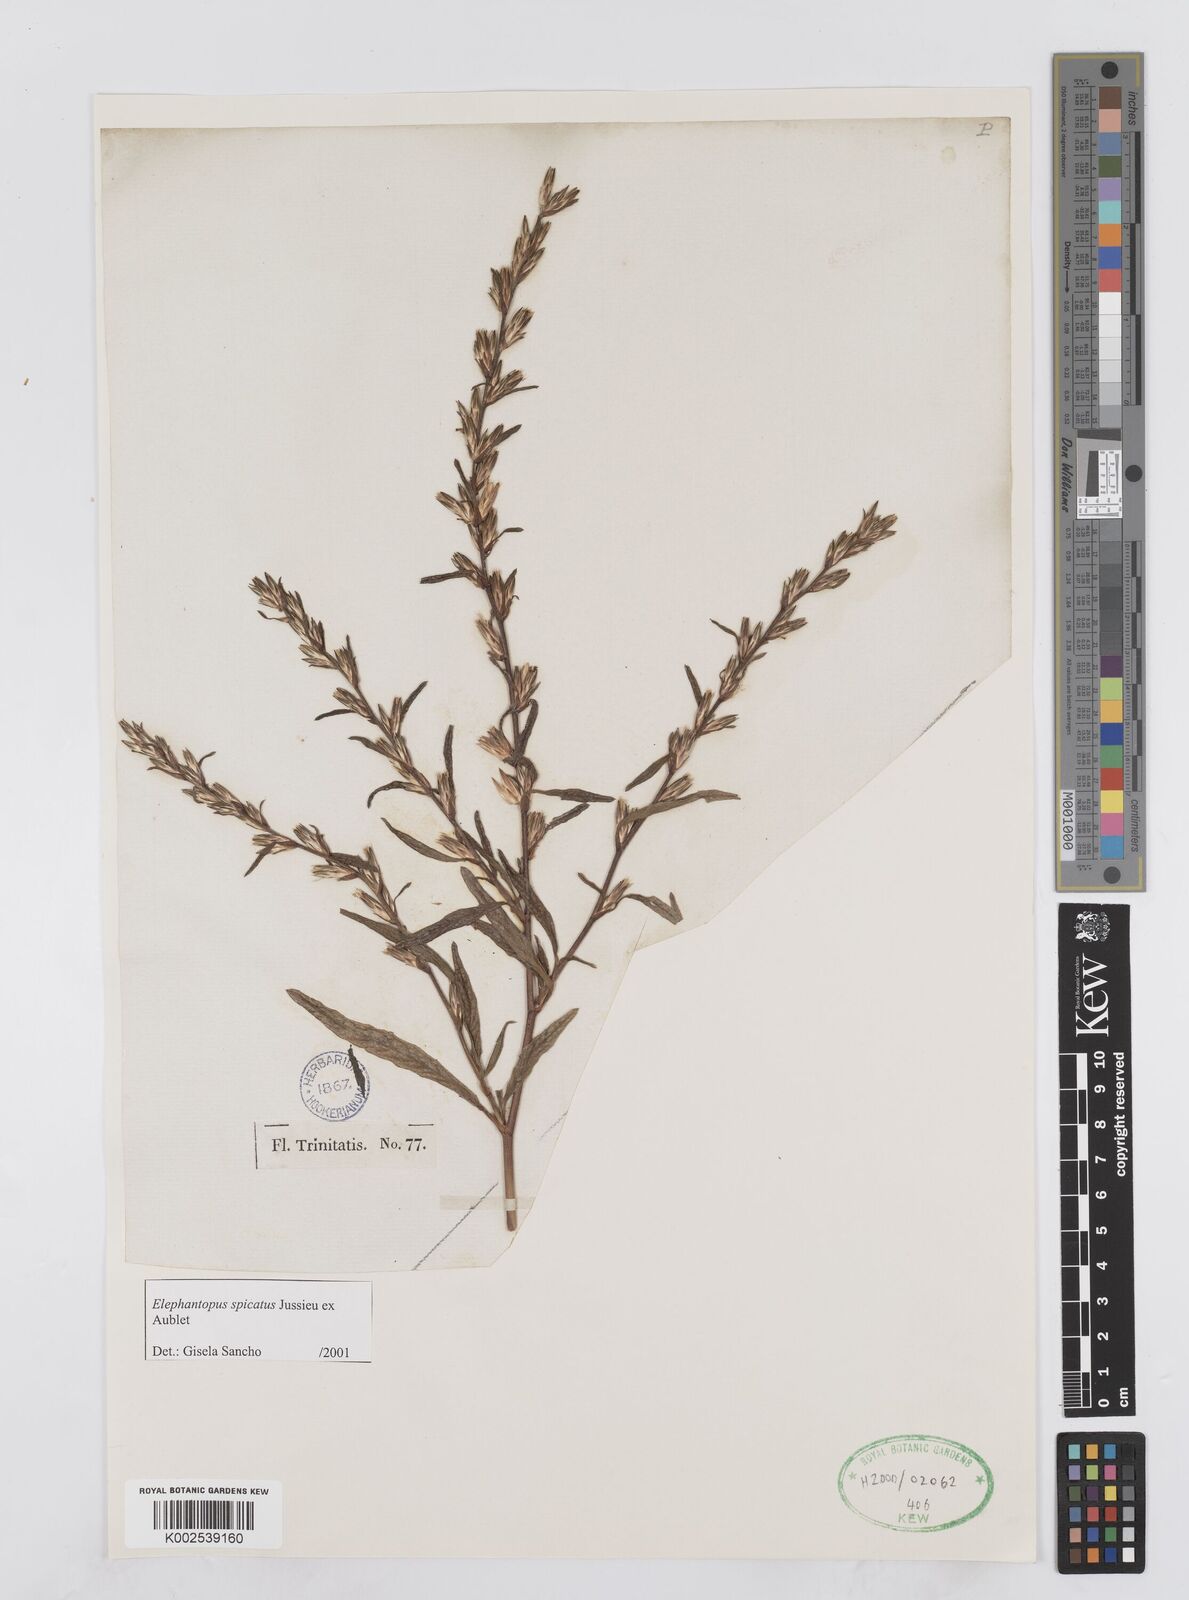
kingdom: Plantae
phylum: Tracheophyta
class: Magnoliopsida
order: Asterales
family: Asteraceae
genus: Pseudelephantopus
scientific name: Pseudelephantopus spicatus
